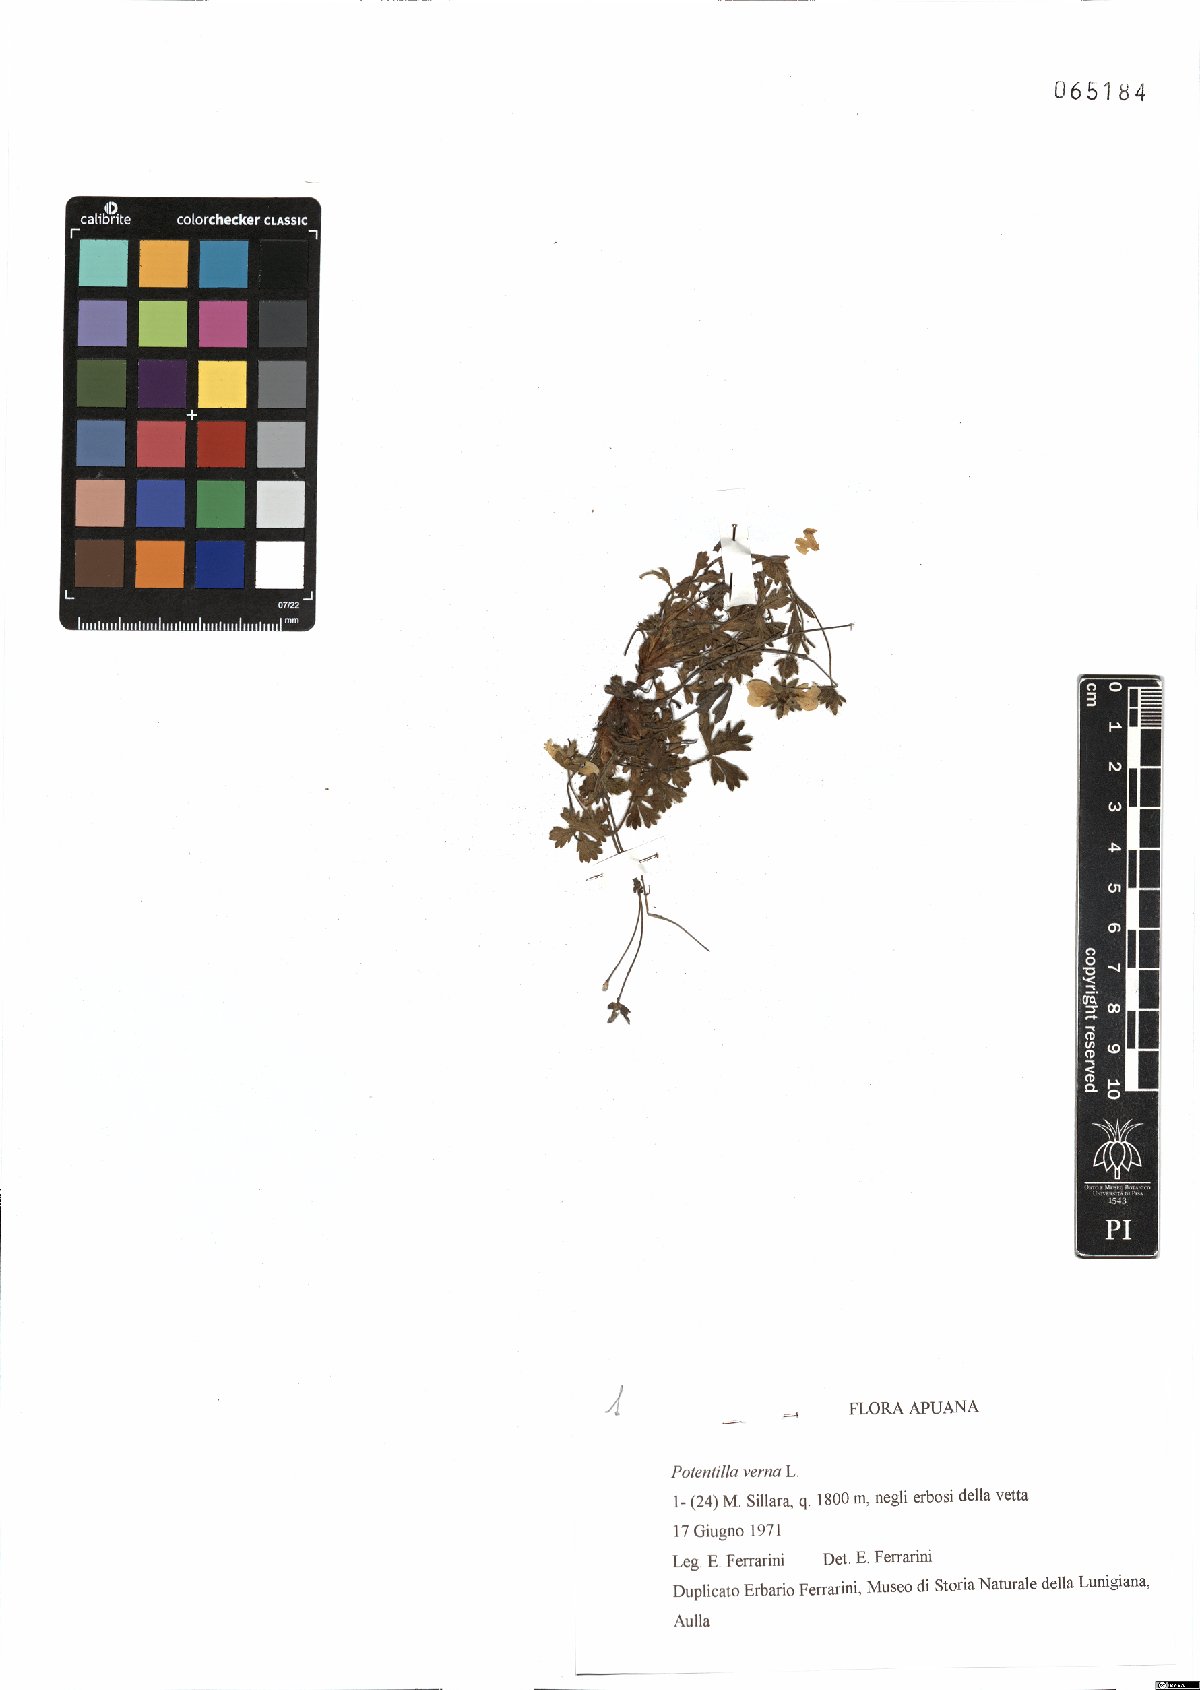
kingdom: Plantae
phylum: Tracheophyta
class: Magnoliopsida
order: Rosales
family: Rosaceae
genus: Potentilla
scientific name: Potentilla verna
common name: Spring cinquefoil
